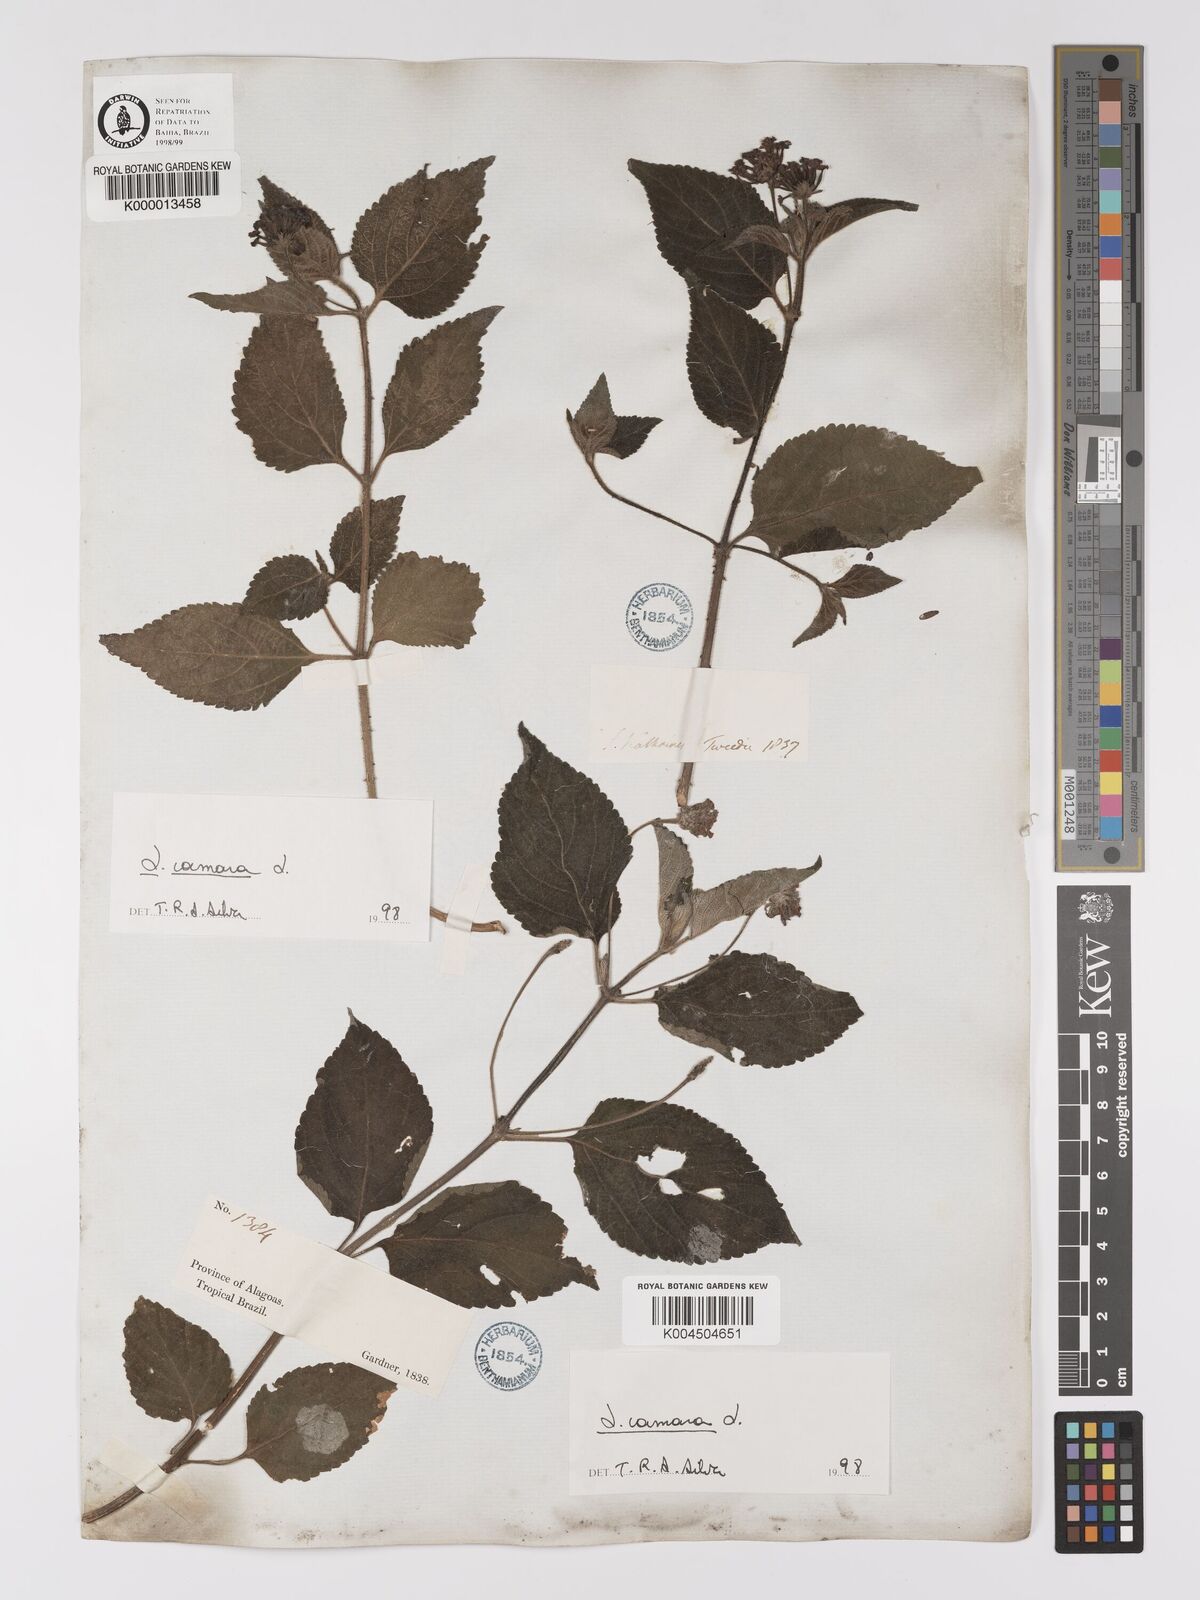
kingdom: Plantae
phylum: Tracheophyta
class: Magnoliopsida
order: Lamiales
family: Verbenaceae
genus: Lantana
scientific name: Lantana camara
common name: Lantana
